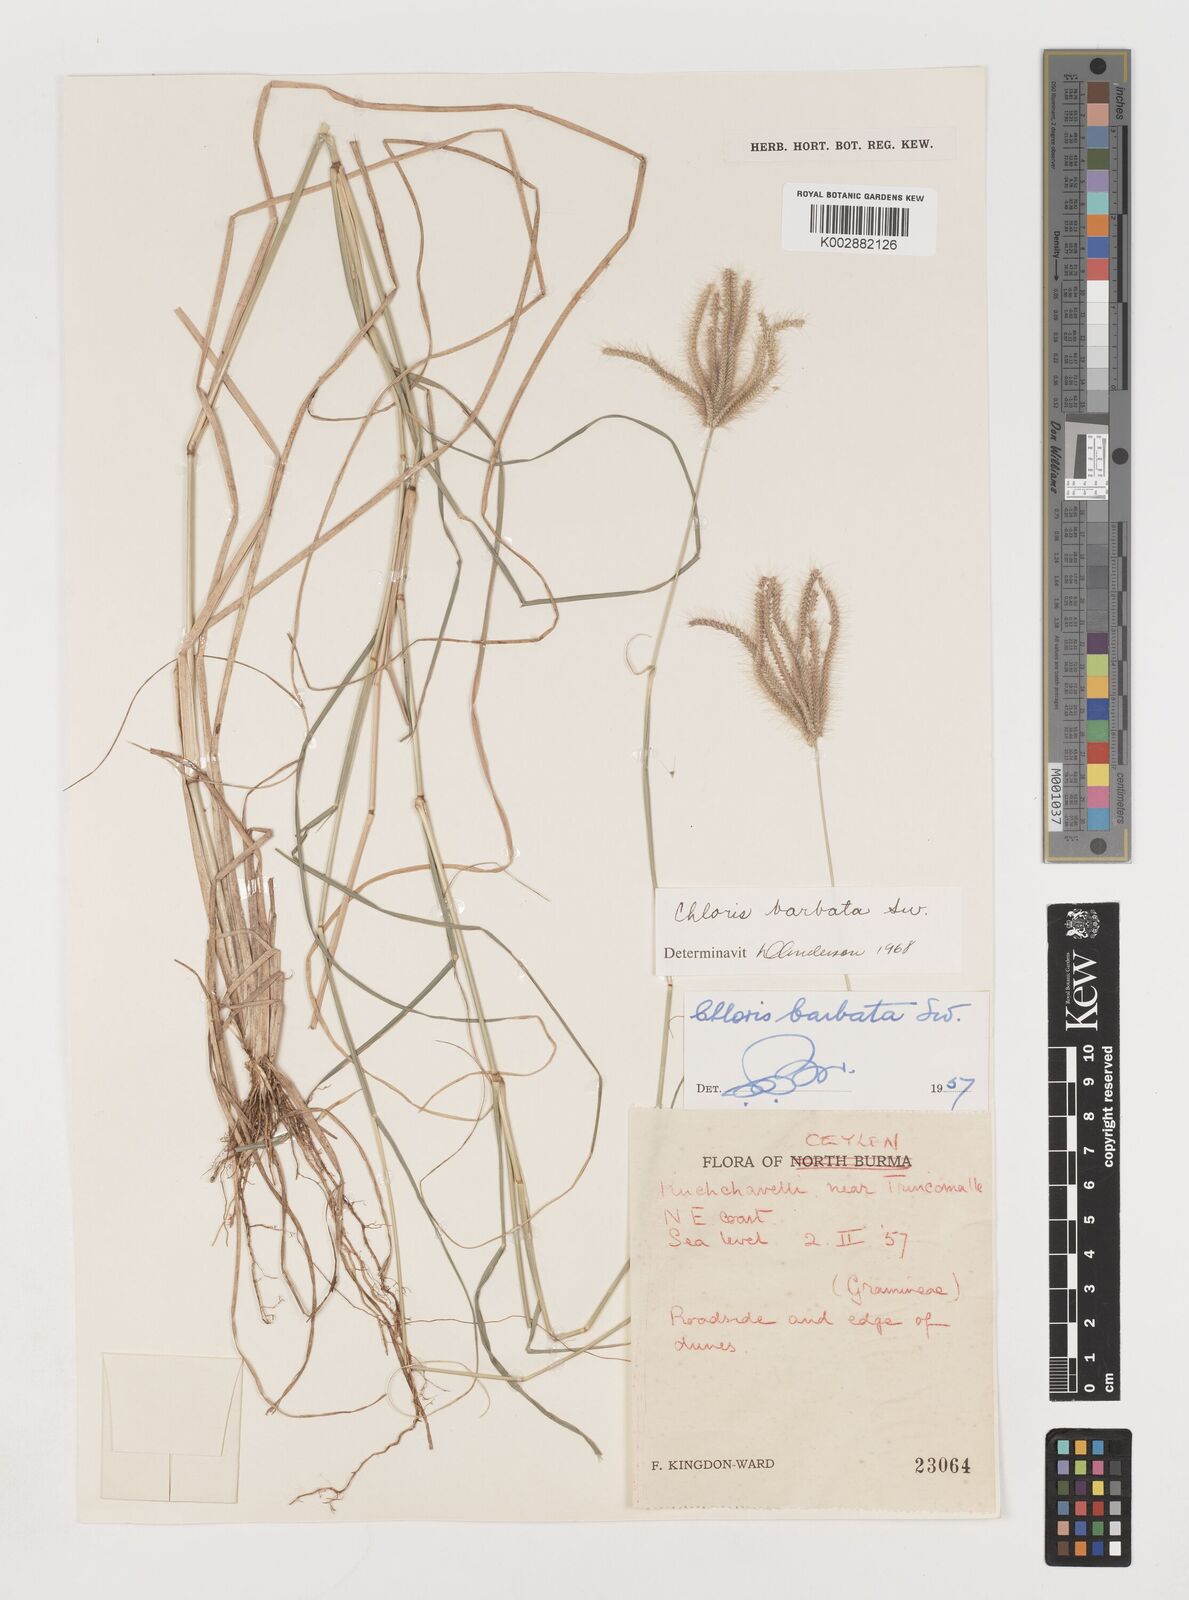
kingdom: Plantae
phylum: Tracheophyta
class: Liliopsida
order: Poales
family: Poaceae
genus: Chloris
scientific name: Chloris barbata
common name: Swollen fingergrass
